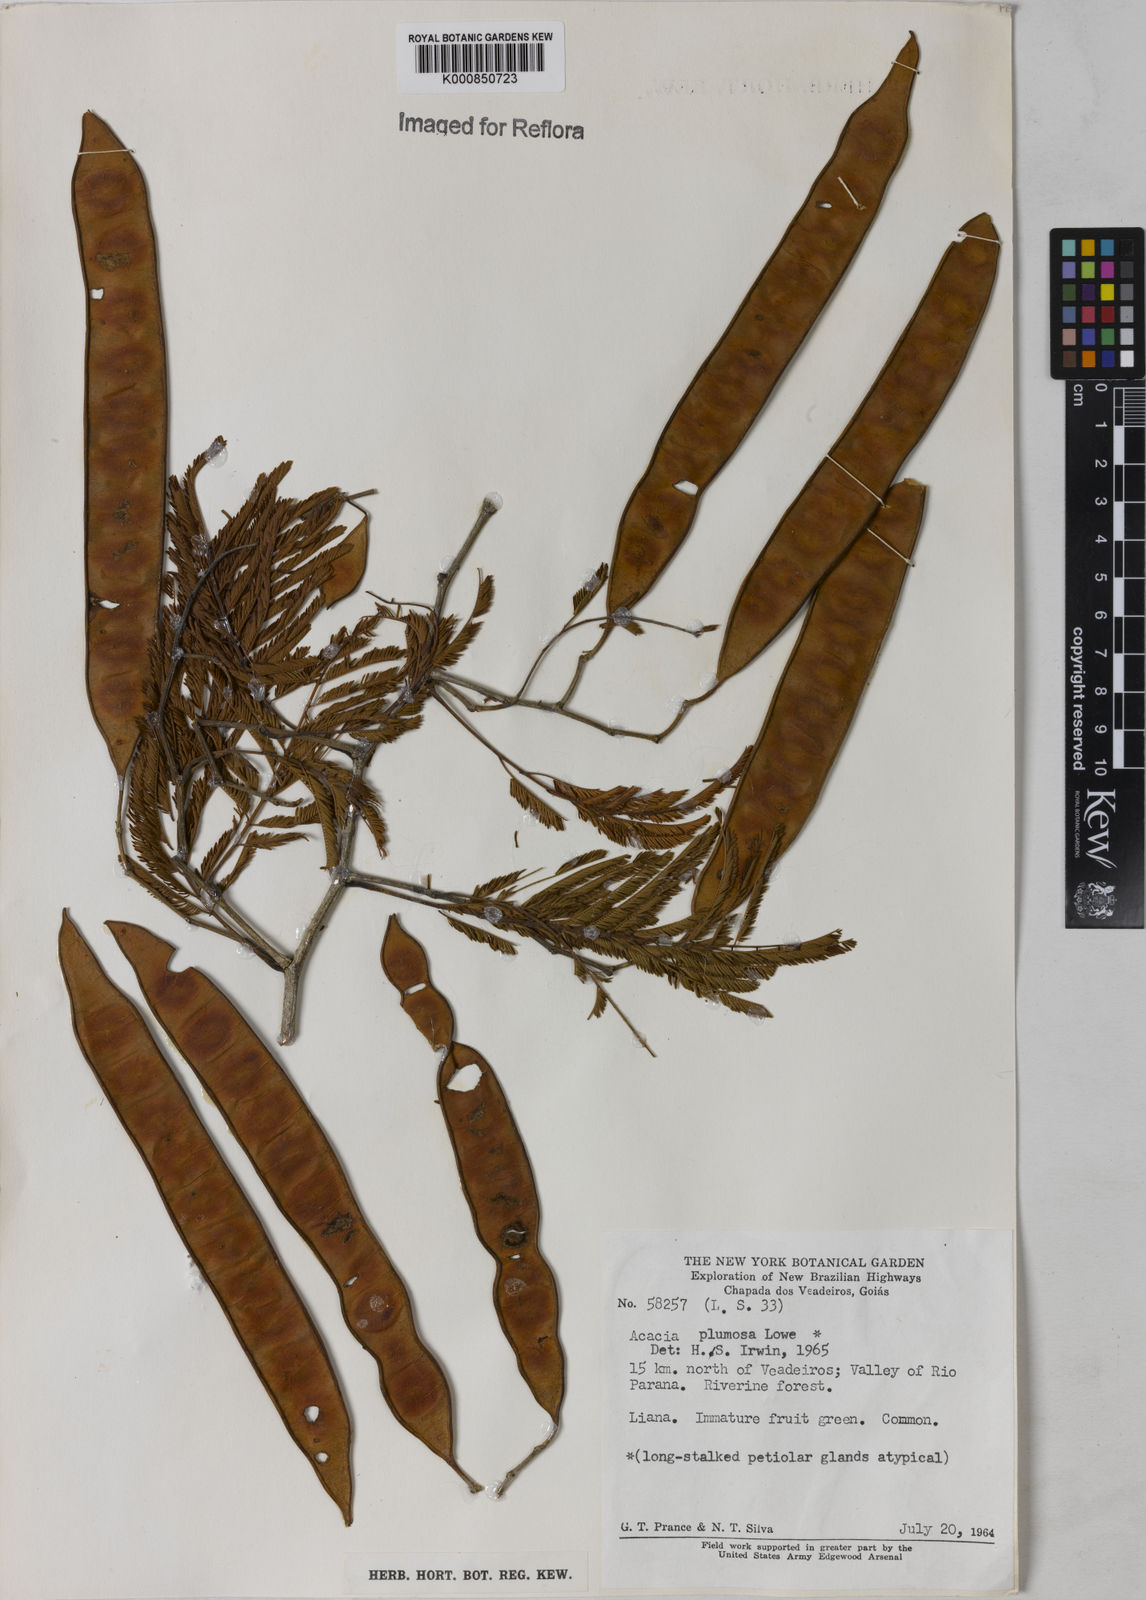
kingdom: Plantae
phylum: Tracheophyta
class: Magnoliopsida
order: Fabales
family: Fabaceae
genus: Senegalia
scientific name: Senegalia lowei
